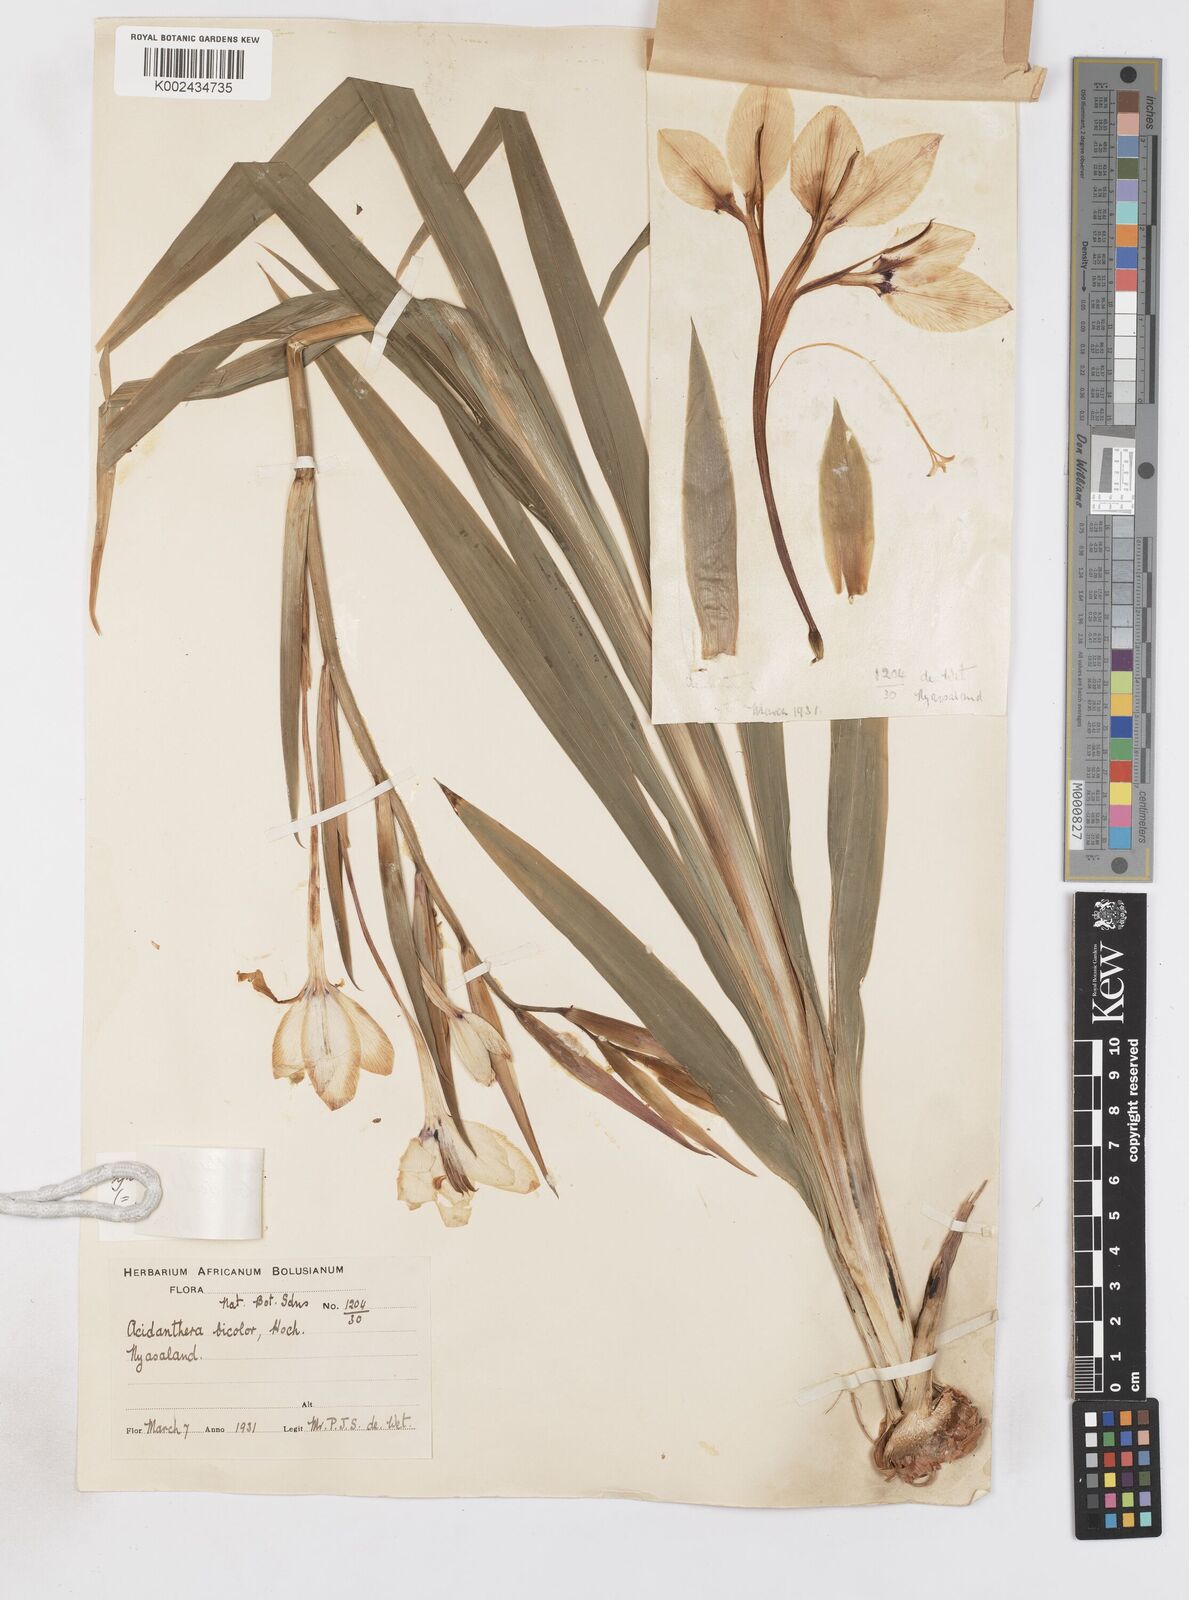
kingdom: Plantae
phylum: Tracheophyta
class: Liliopsida
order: Asparagales
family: Iridaceae
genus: Gladiolus
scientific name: Gladiolus murielae
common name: Acidanthera
